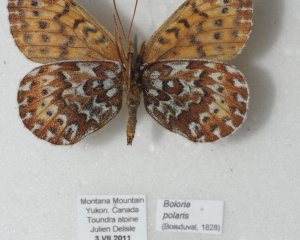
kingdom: Animalia
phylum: Arthropoda
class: Insecta
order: Lepidoptera
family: Nymphalidae
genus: Clossiana
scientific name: Clossiana polaris
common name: Polaris Fritillary
